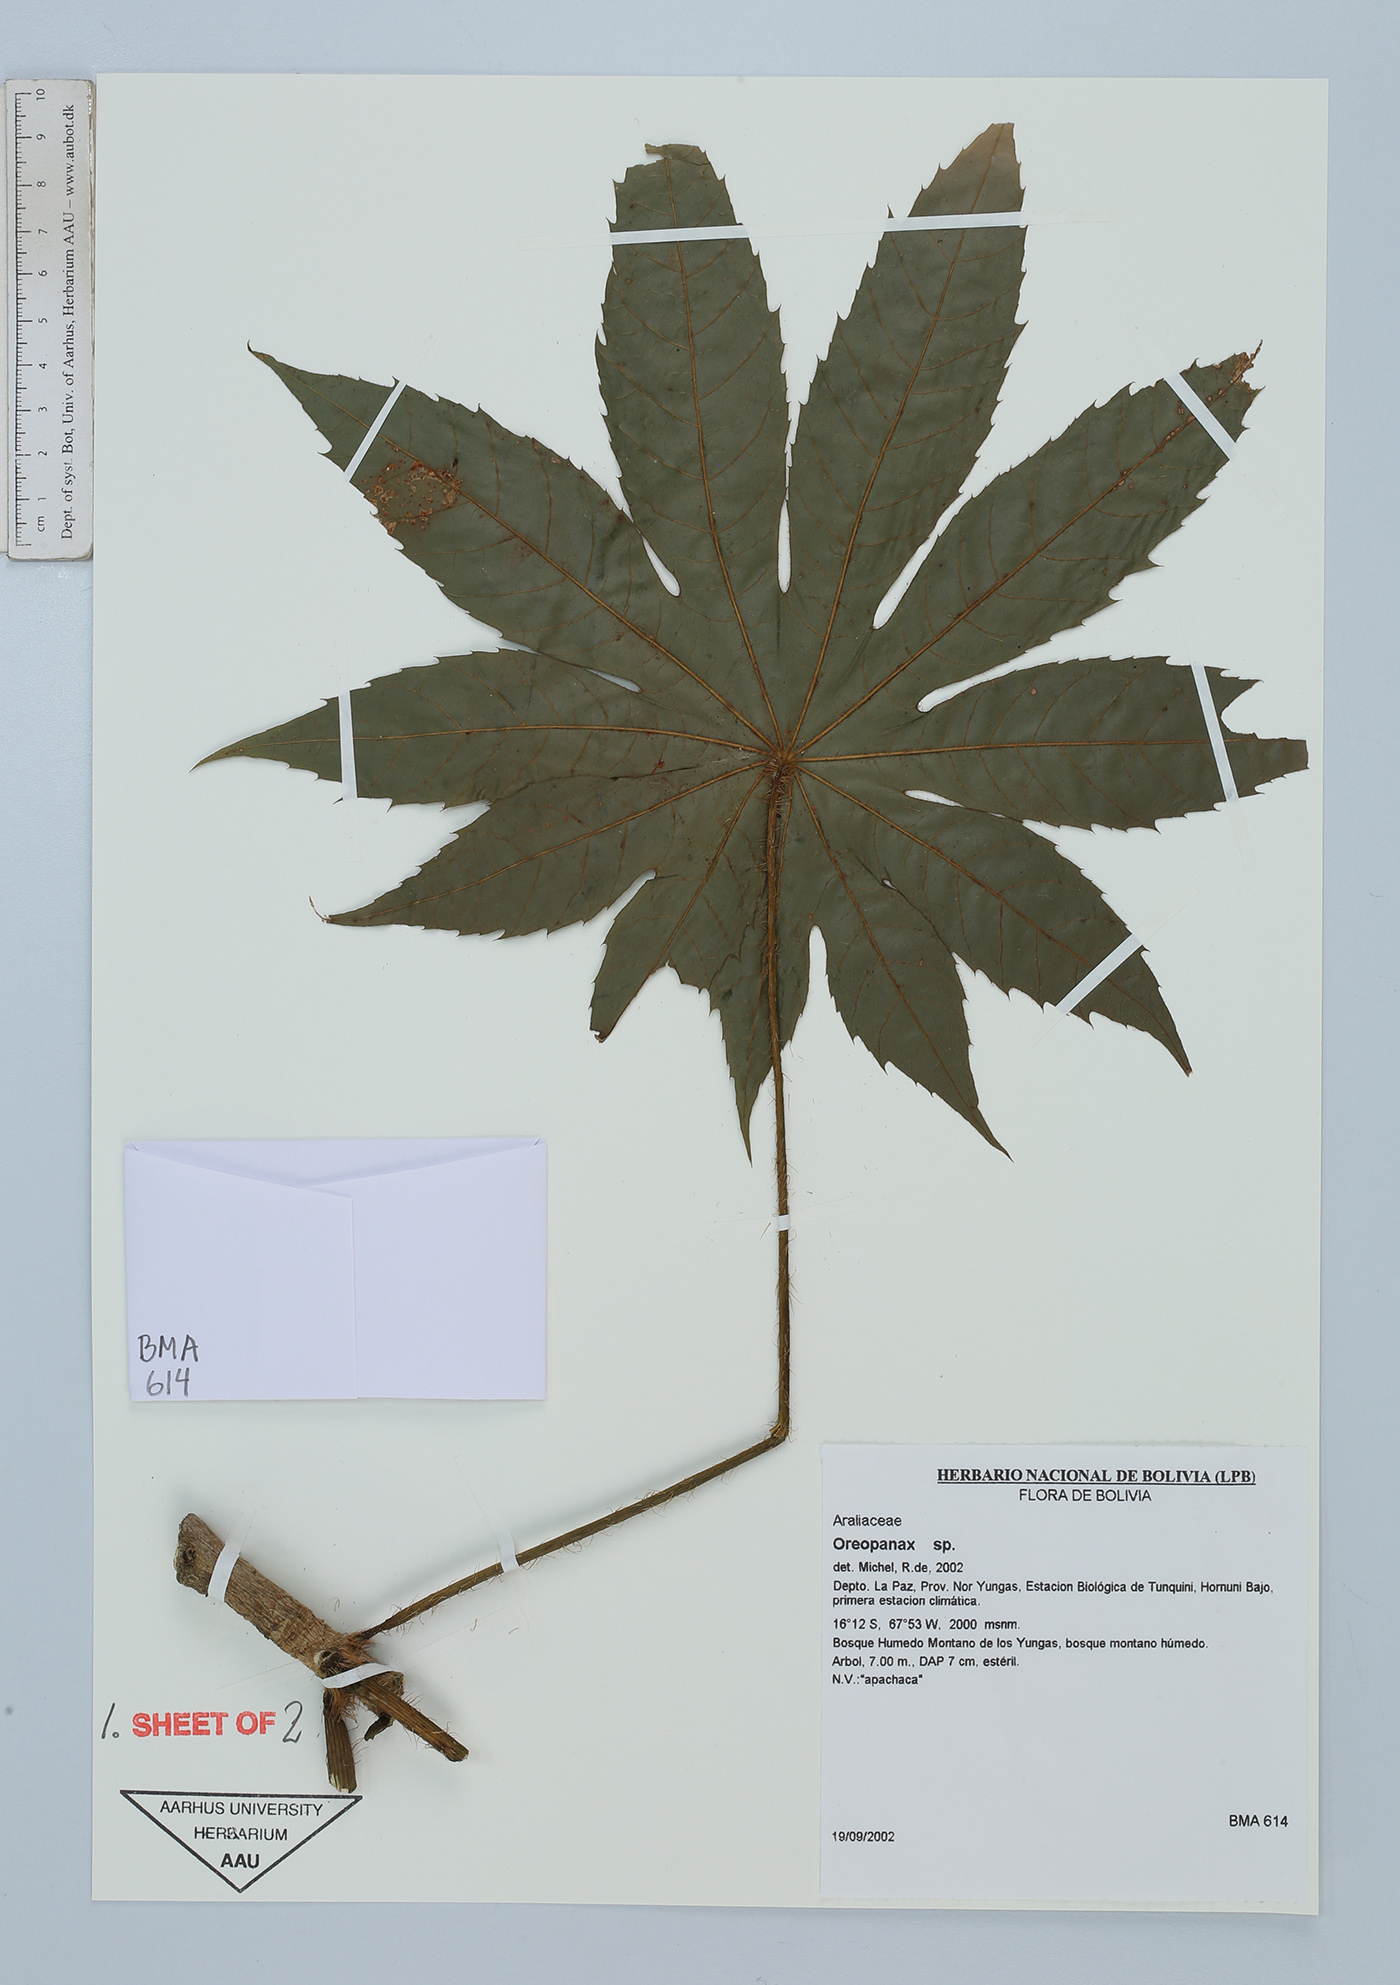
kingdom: Plantae
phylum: Tracheophyta
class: Magnoliopsida
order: Apiales
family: Araliaceae
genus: Oreopanax
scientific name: Oreopanax
